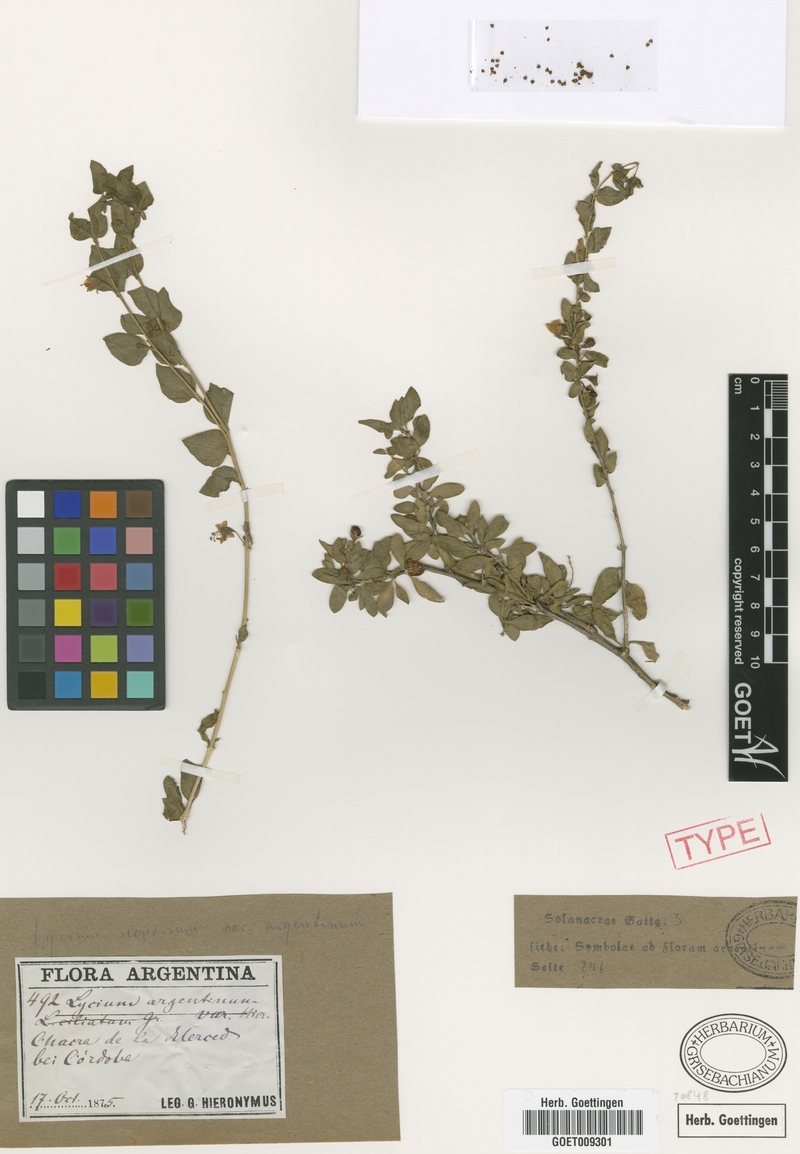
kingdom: Plantae
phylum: Tracheophyta
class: Magnoliopsida
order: Solanales
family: Solanaceae
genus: Lycium
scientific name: Lycium ciliatum
